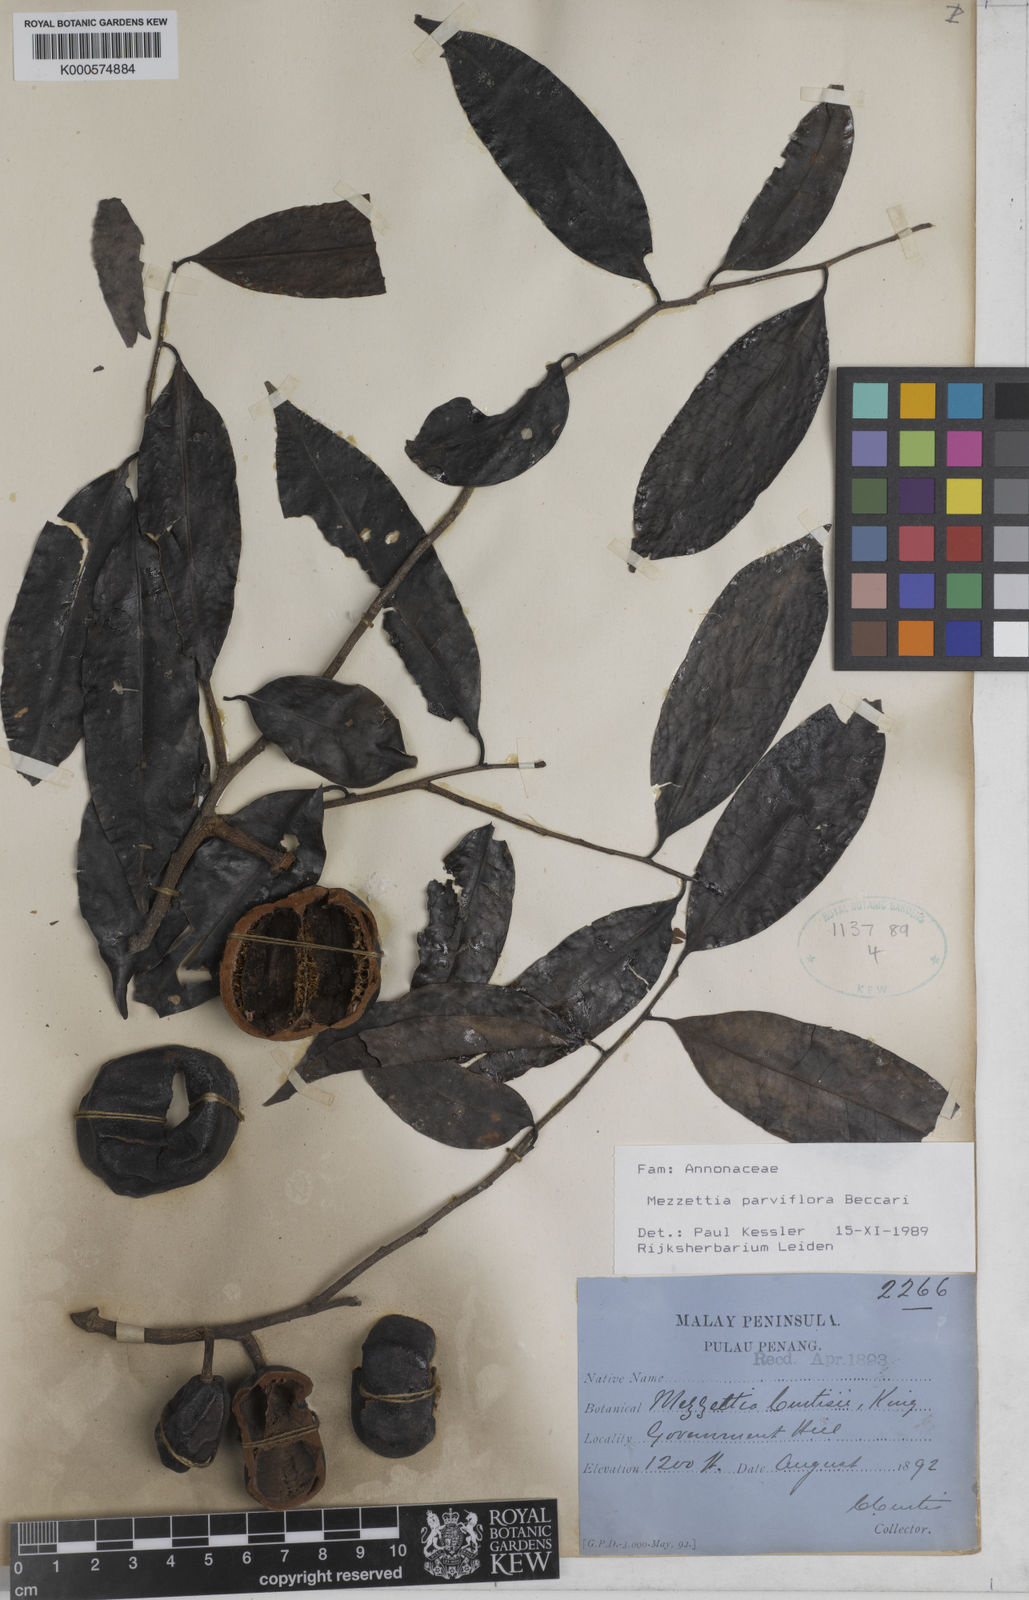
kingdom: Plantae
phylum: Tracheophyta
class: Magnoliopsida
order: Magnoliales
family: Annonaceae
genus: Mezzettia
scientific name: Mezzettia parviflora
